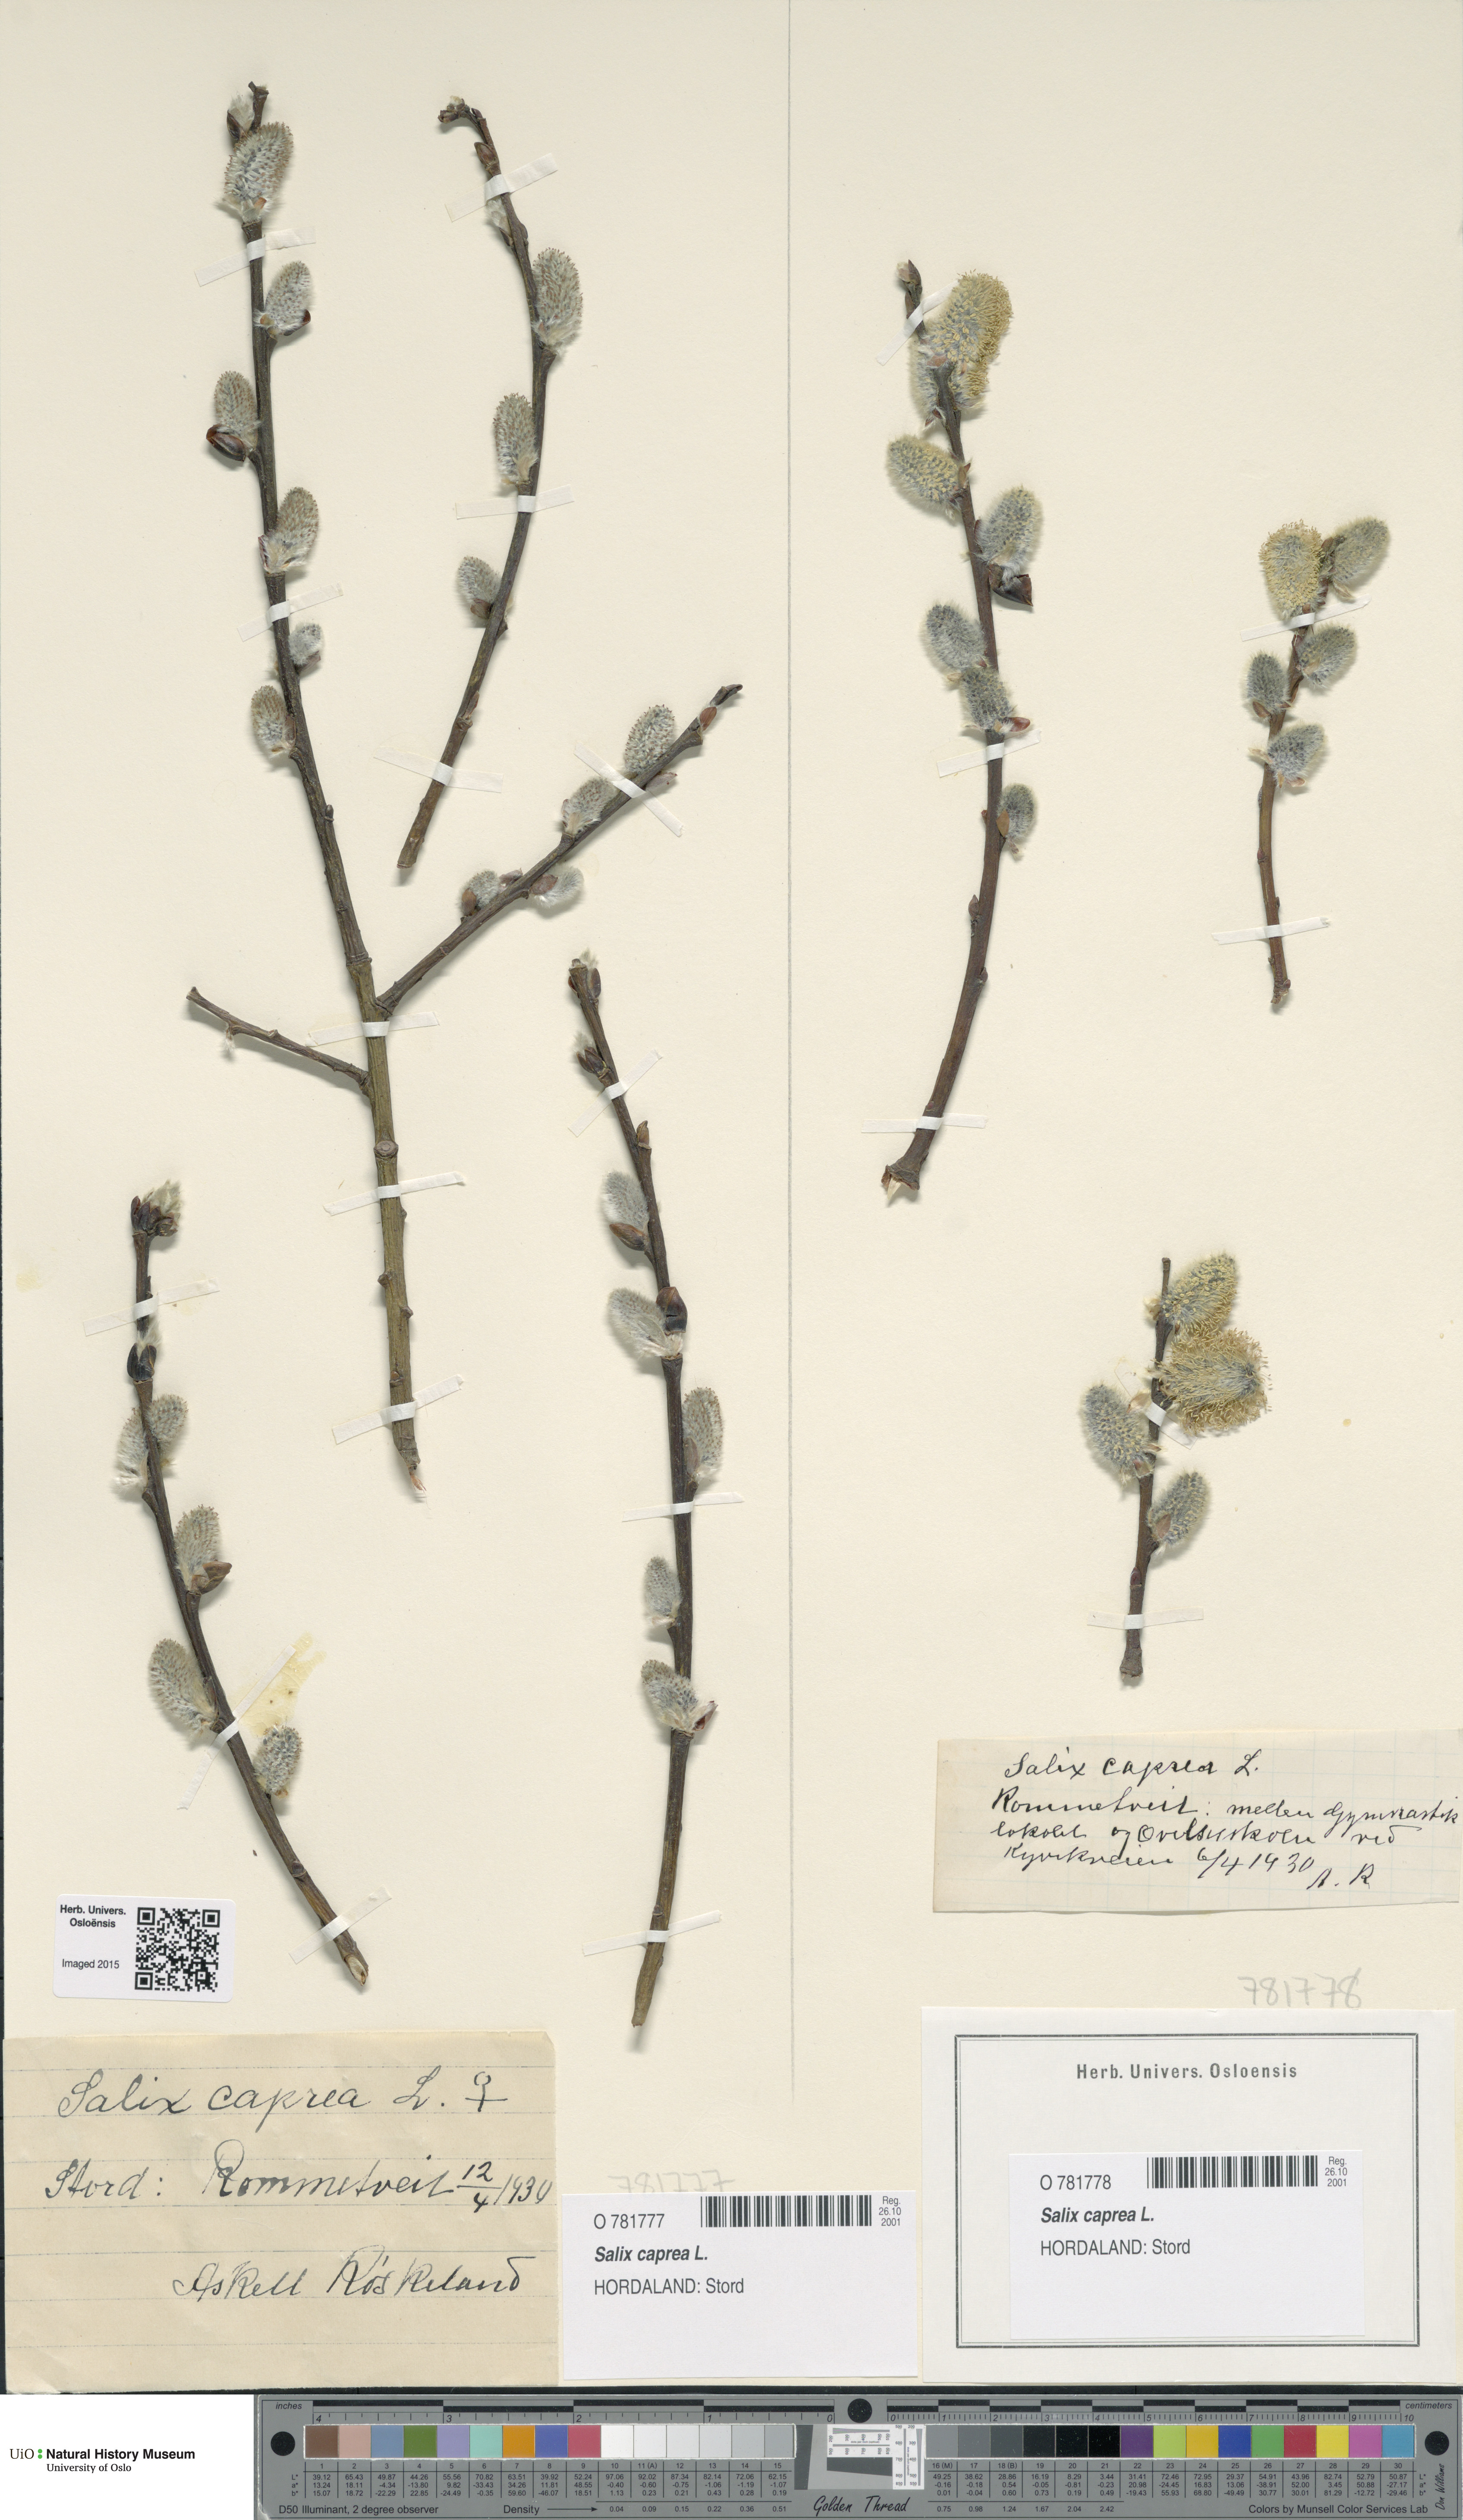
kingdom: Plantae
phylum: Tracheophyta
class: Magnoliopsida
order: Malpighiales
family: Salicaceae
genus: Salix
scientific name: Salix caprea
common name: Goat willow
